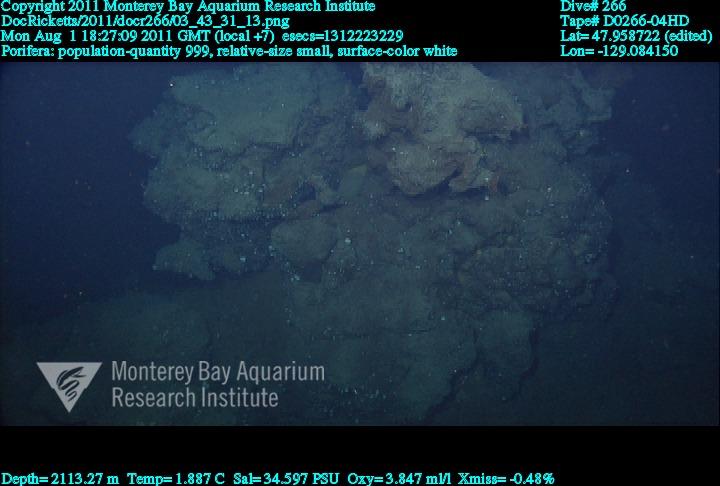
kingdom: Animalia
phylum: Porifera
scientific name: Porifera
